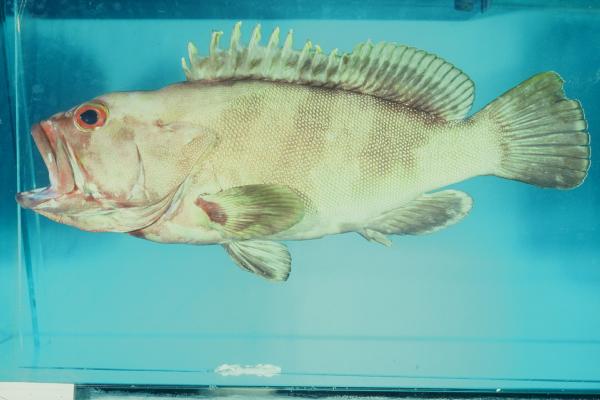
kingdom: Animalia
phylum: Chordata
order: Perciformes
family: Serranidae
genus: Epinephelus
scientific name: Epinephelus rivulatus
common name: Halfmoon grouper
